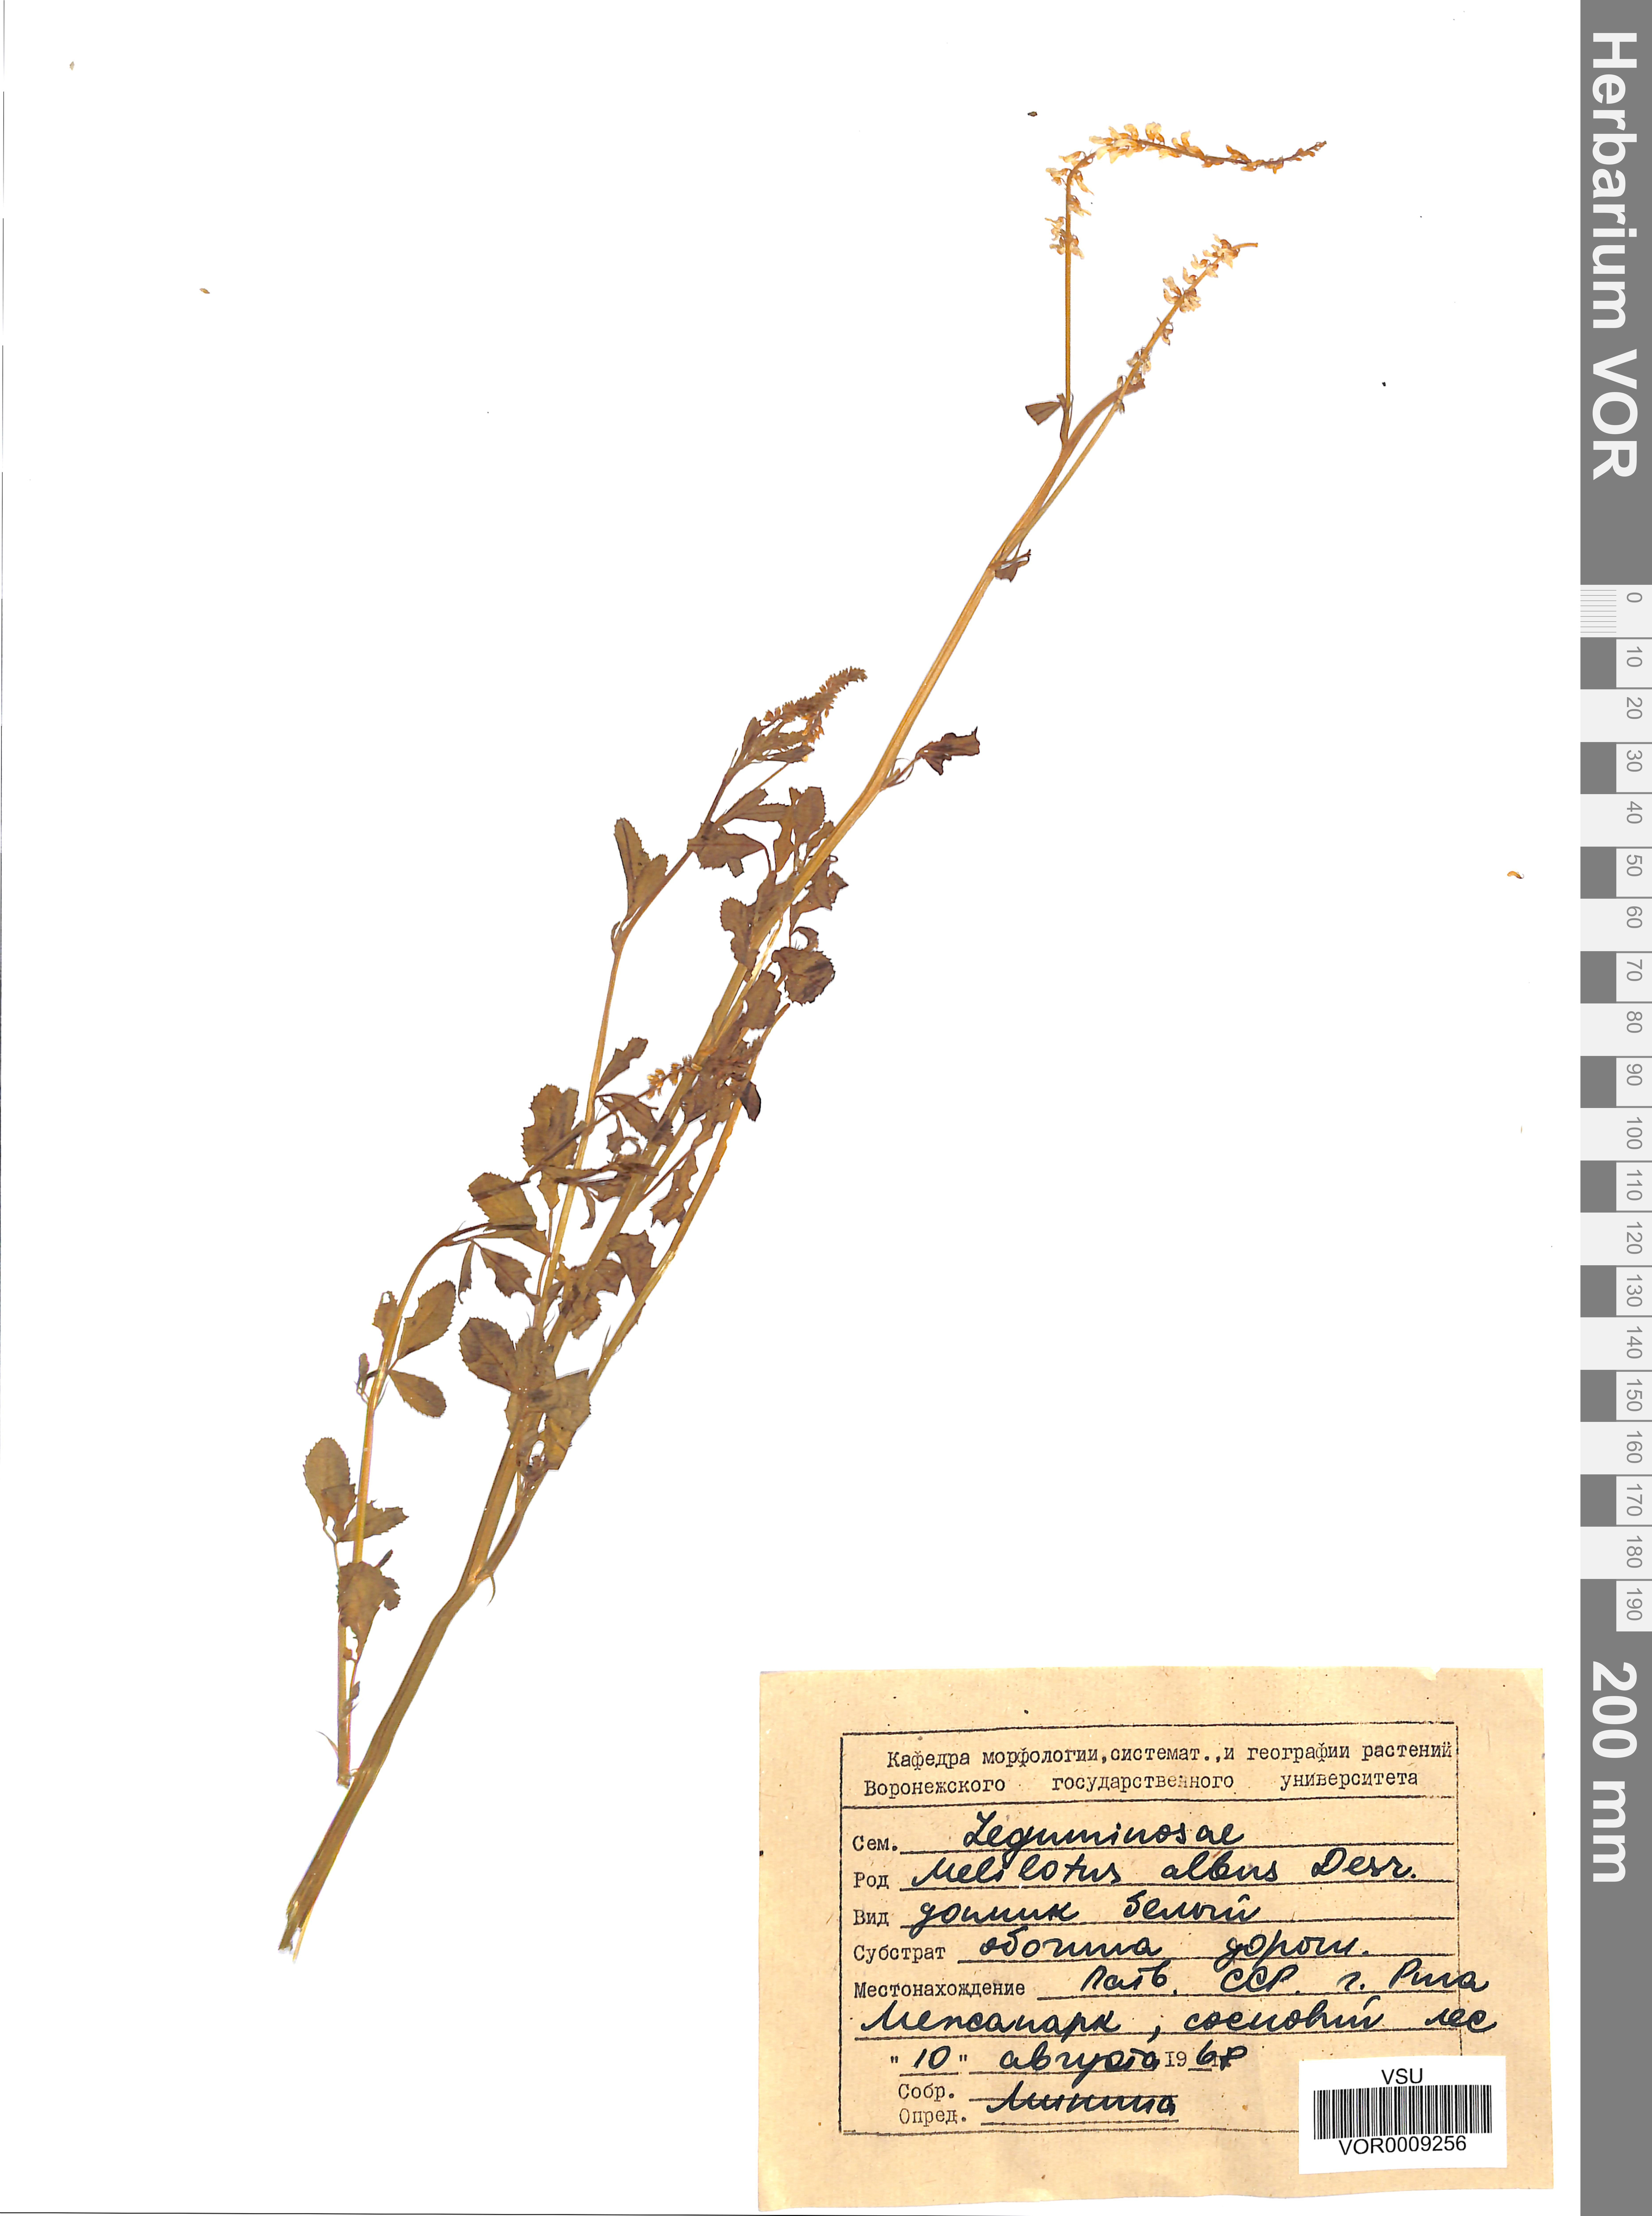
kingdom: Plantae
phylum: Tracheophyta
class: Magnoliopsida
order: Fabales
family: Fabaceae
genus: Melilotus
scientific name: Melilotus albus
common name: White melilot
